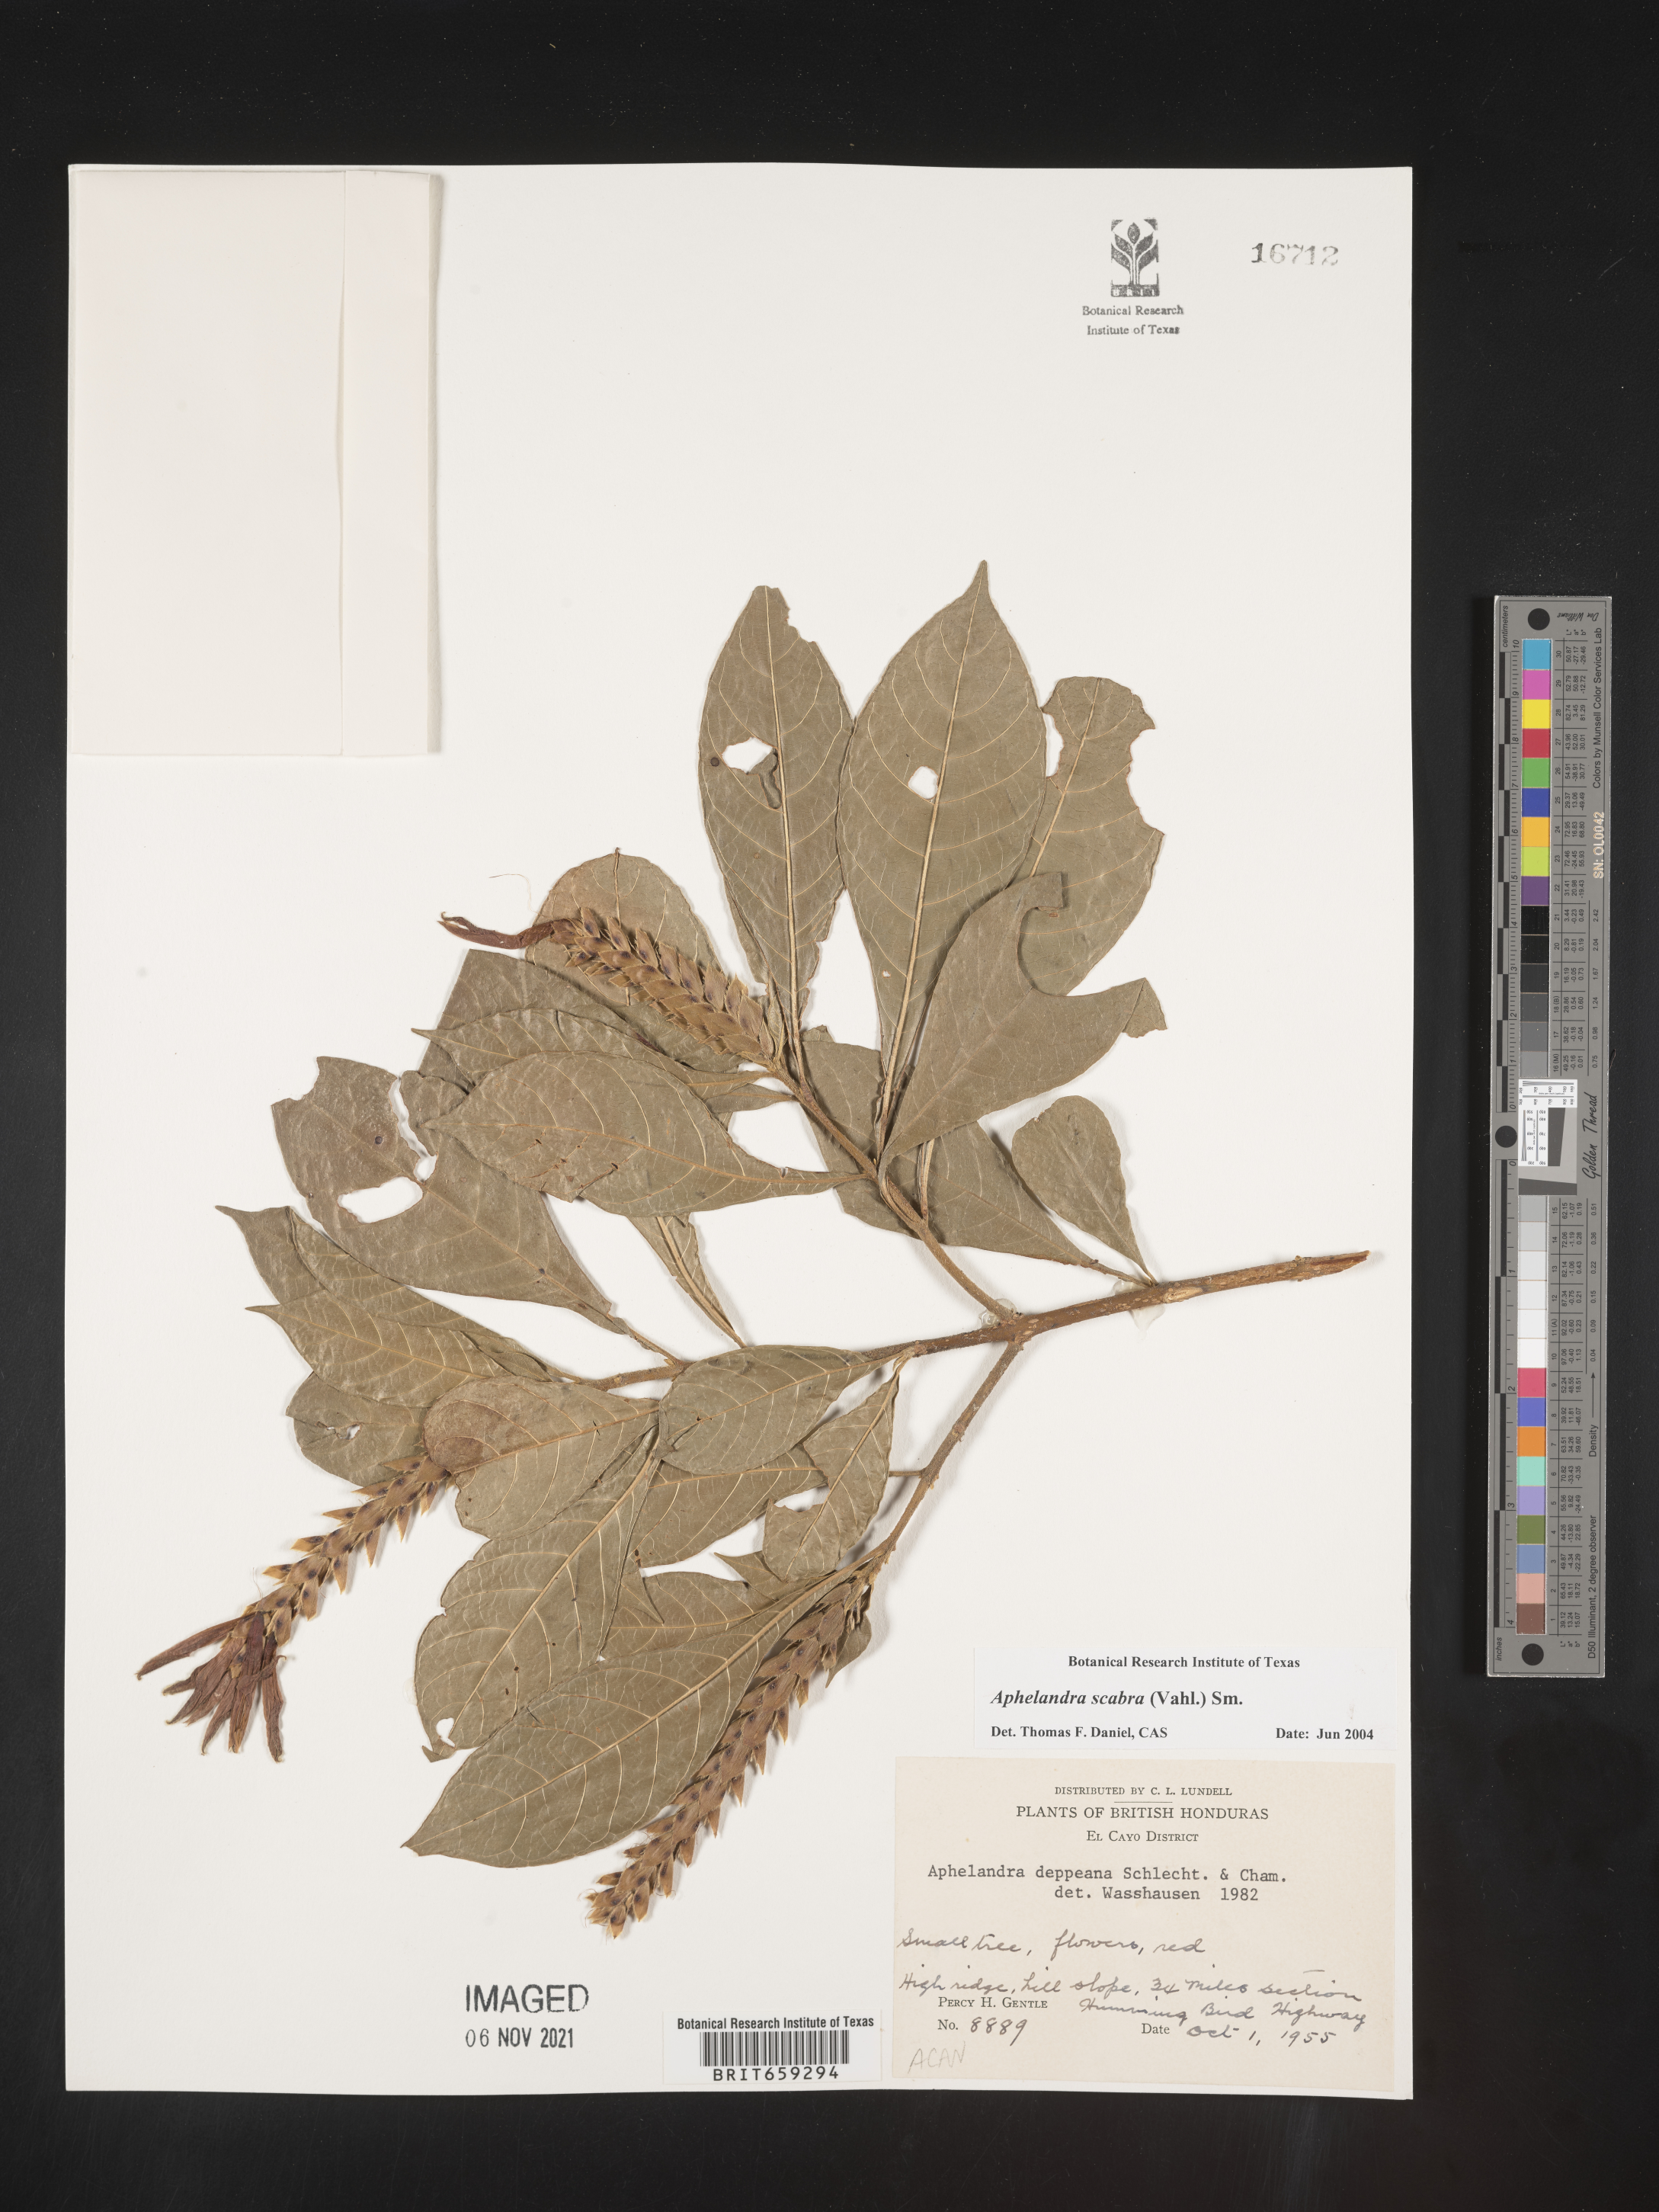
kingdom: Plantae
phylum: Tracheophyta
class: Magnoliopsida
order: Lamiales
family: Acanthaceae
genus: Aphelandra
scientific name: Aphelandra
